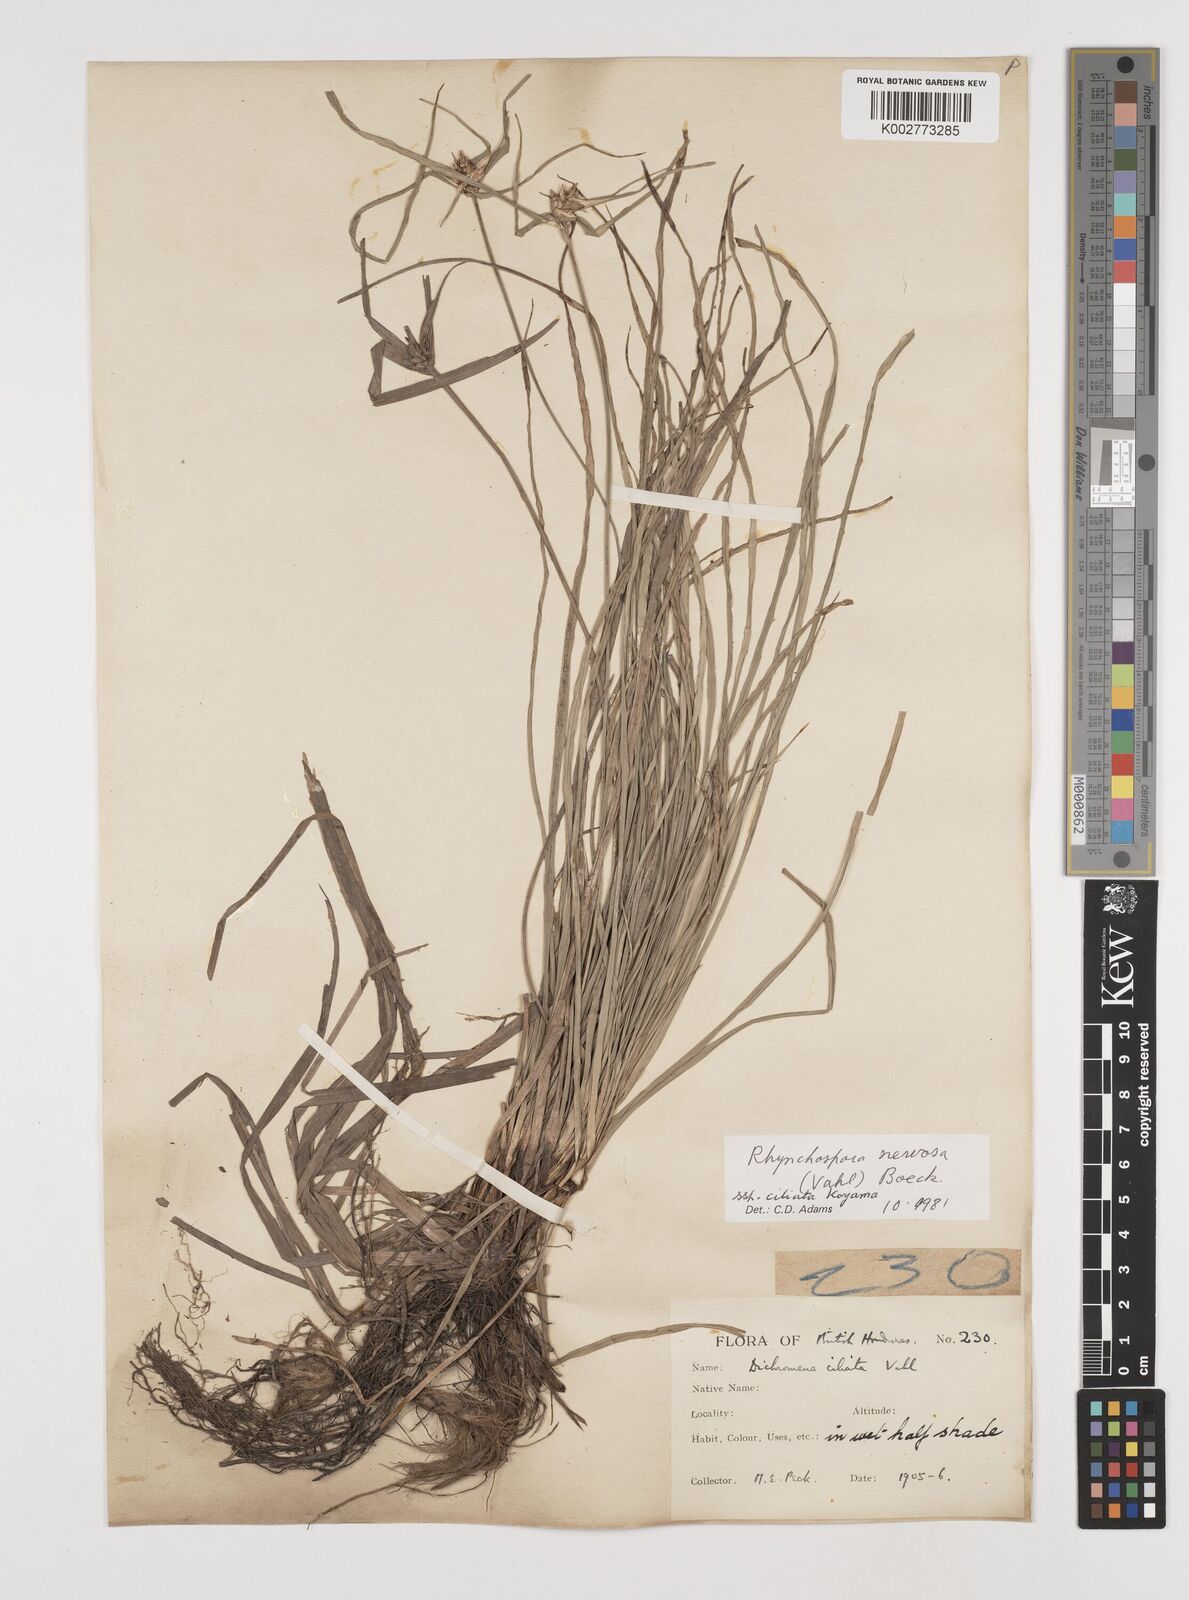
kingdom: Plantae
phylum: Tracheophyta
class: Liliopsida
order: Poales
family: Cyperaceae
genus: Rhynchospora
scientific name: Rhynchospora pura
